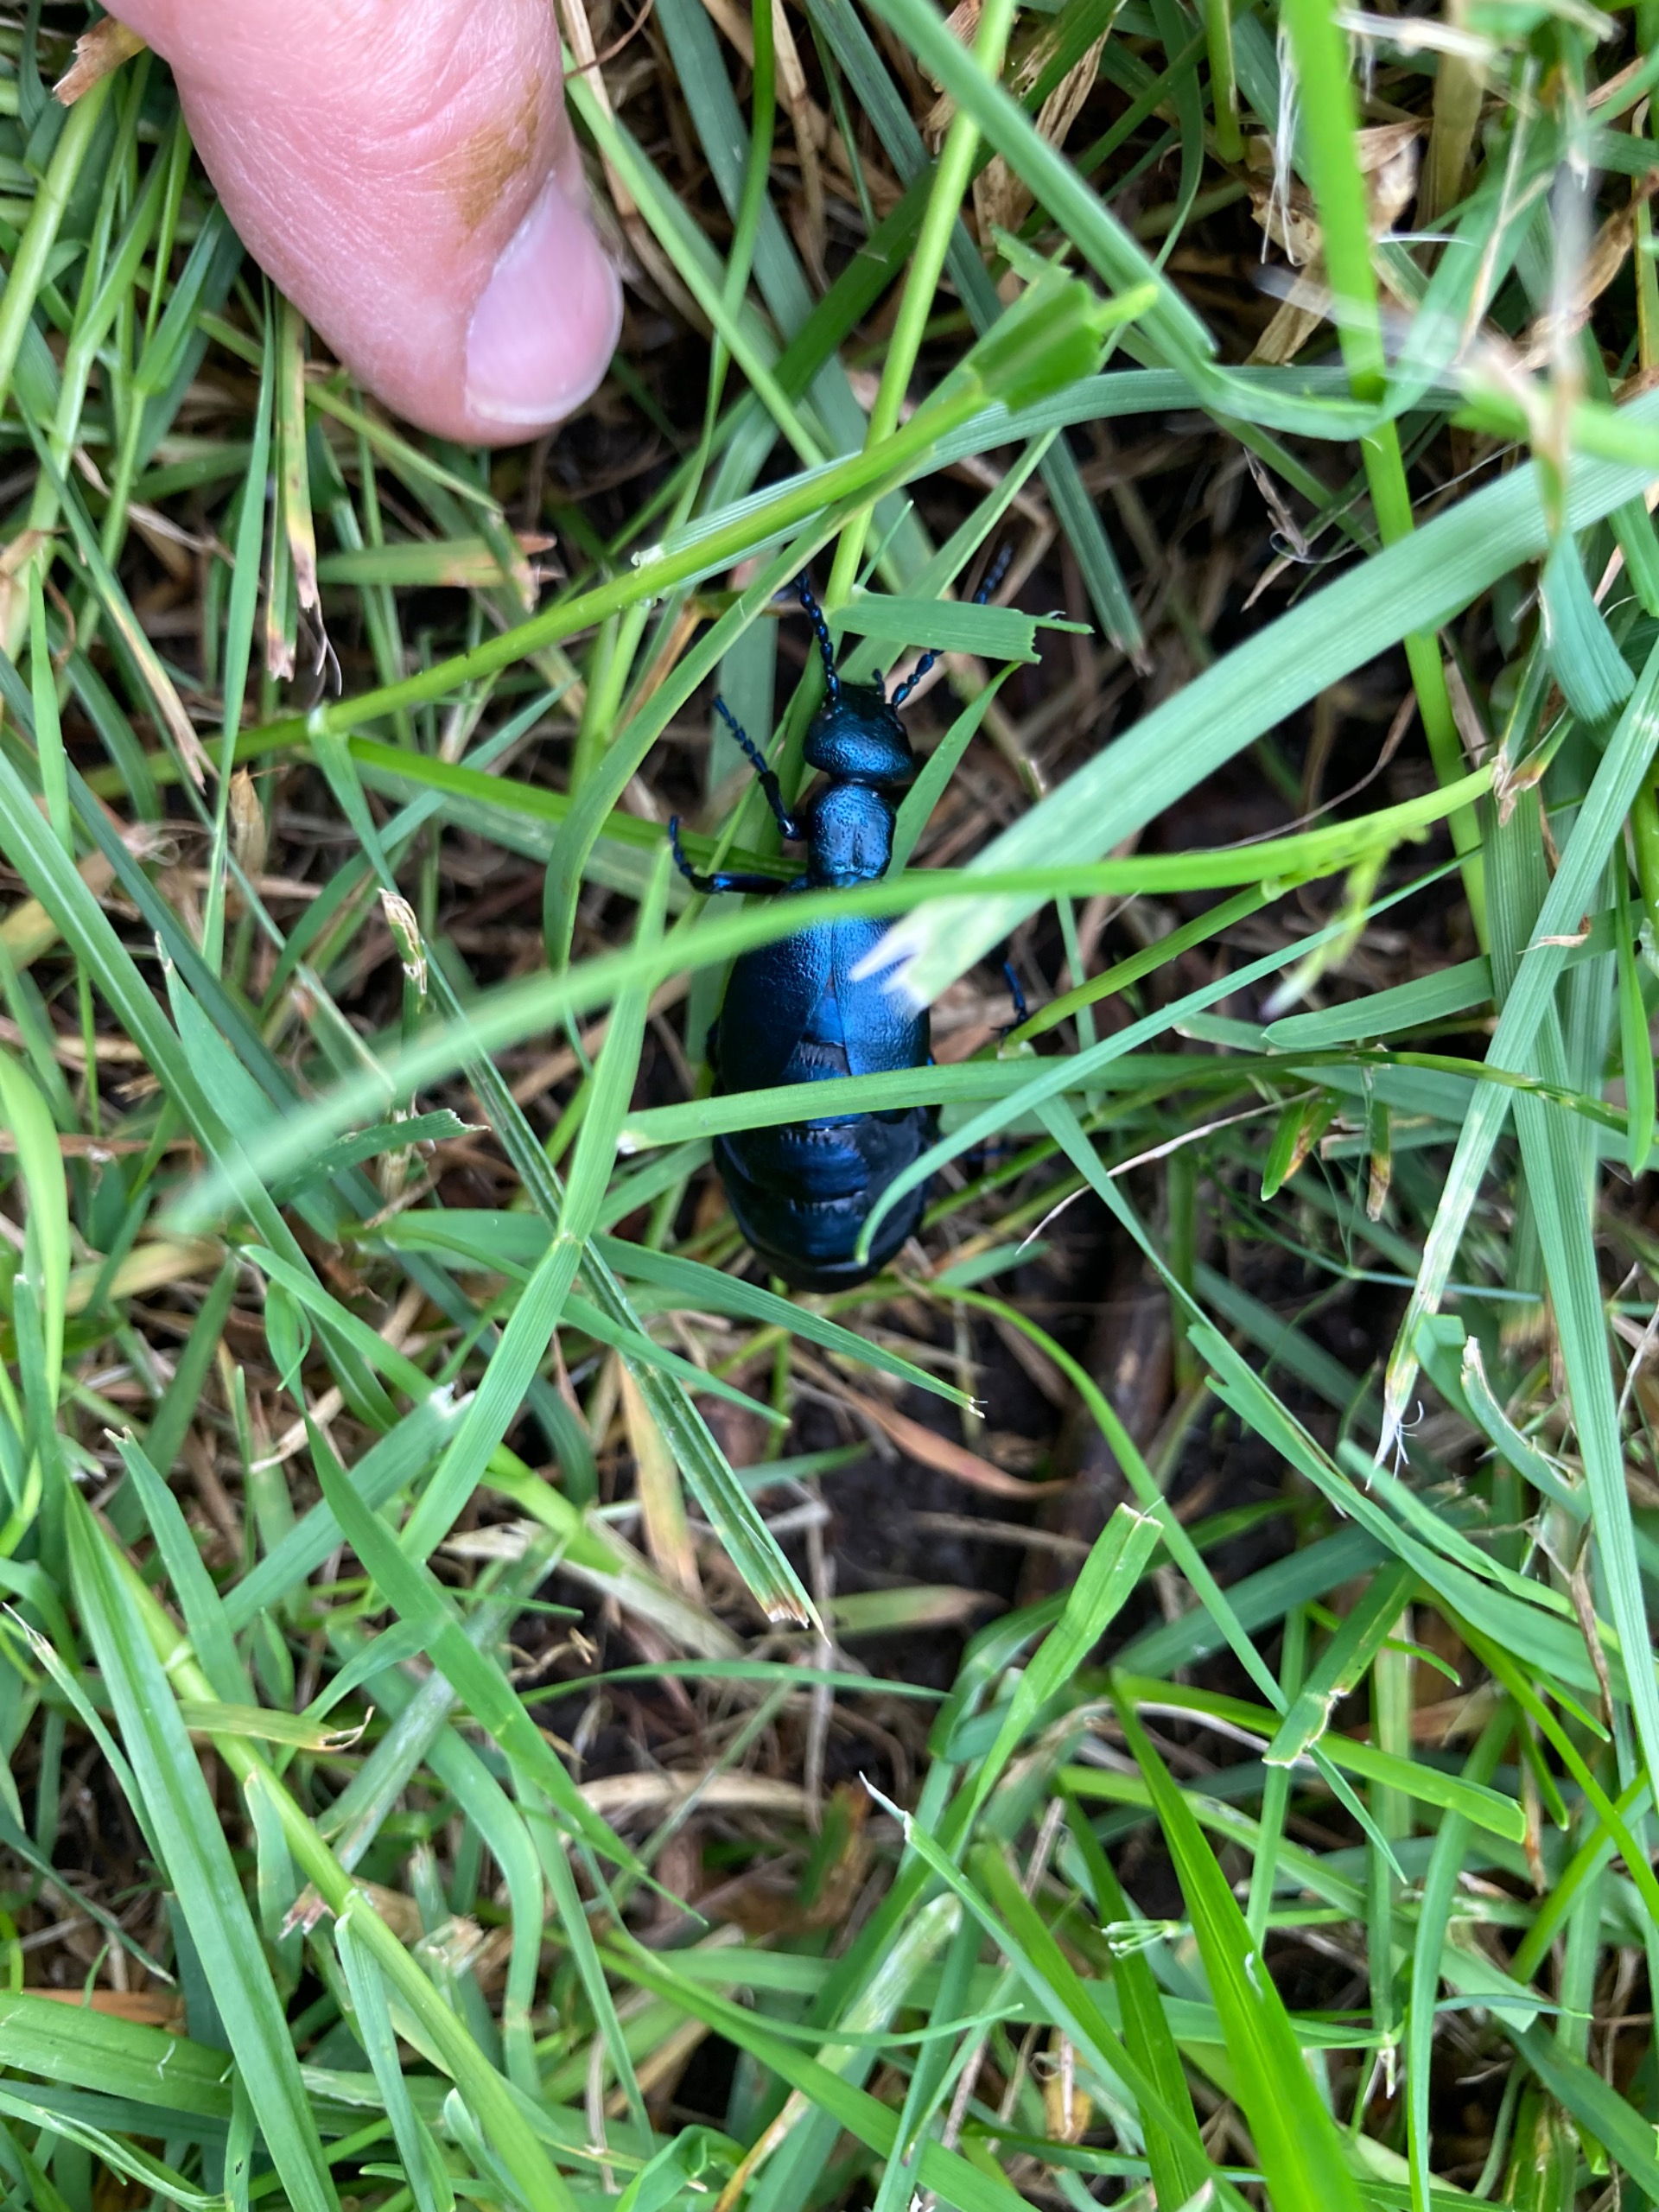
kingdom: Animalia
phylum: Arthropoda
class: Insecta
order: Coleoptera
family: Meloidae
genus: Meloe
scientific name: Meloe violaceus
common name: Blå oliebille
